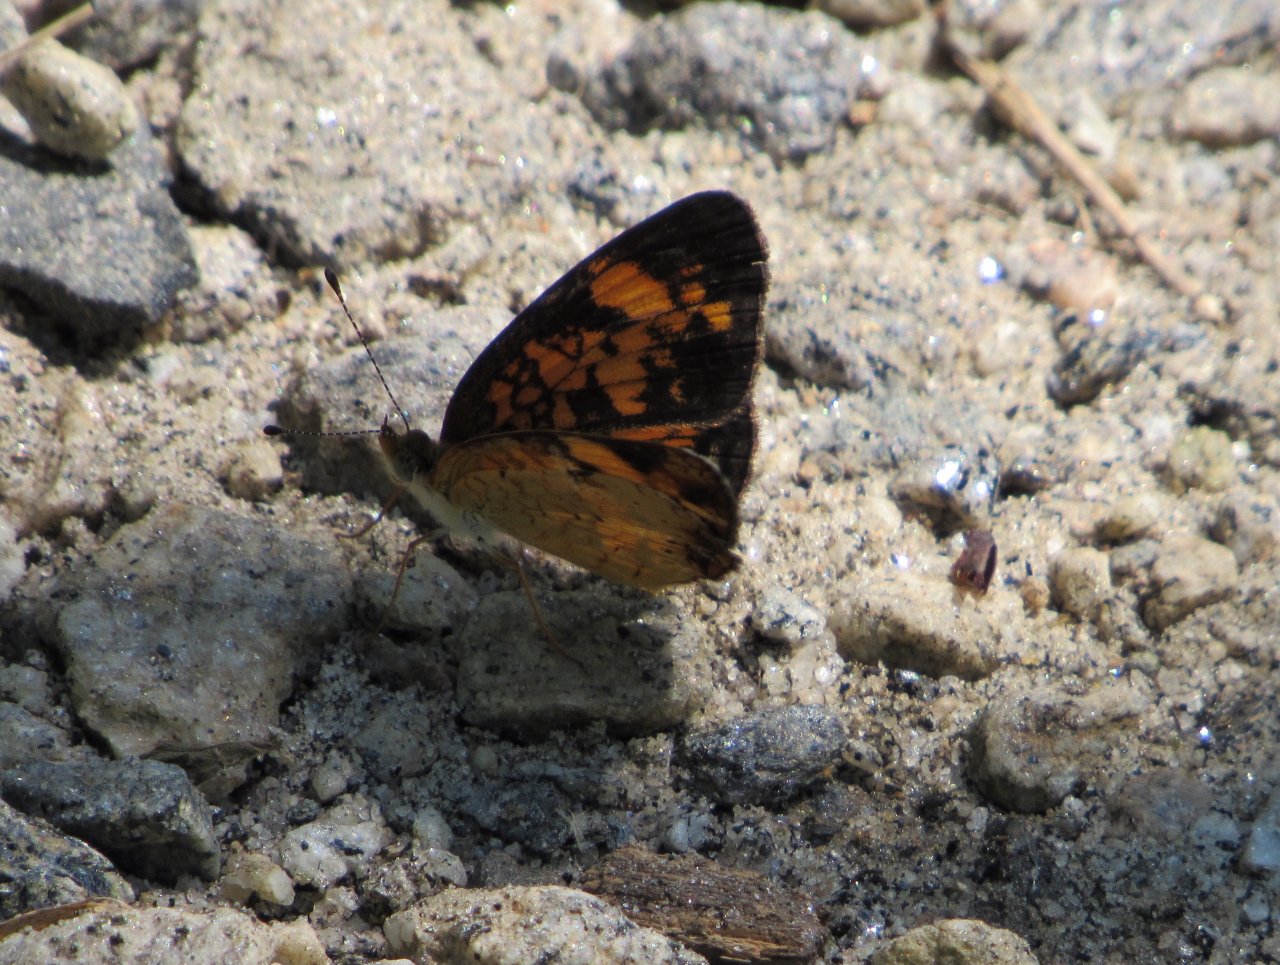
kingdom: Animalia
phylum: Arthropoda
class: Insecta
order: Lepidoptera
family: Nymphalidae
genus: Phyciodes
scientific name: Phyciodes tharos
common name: Pearl Crescent
